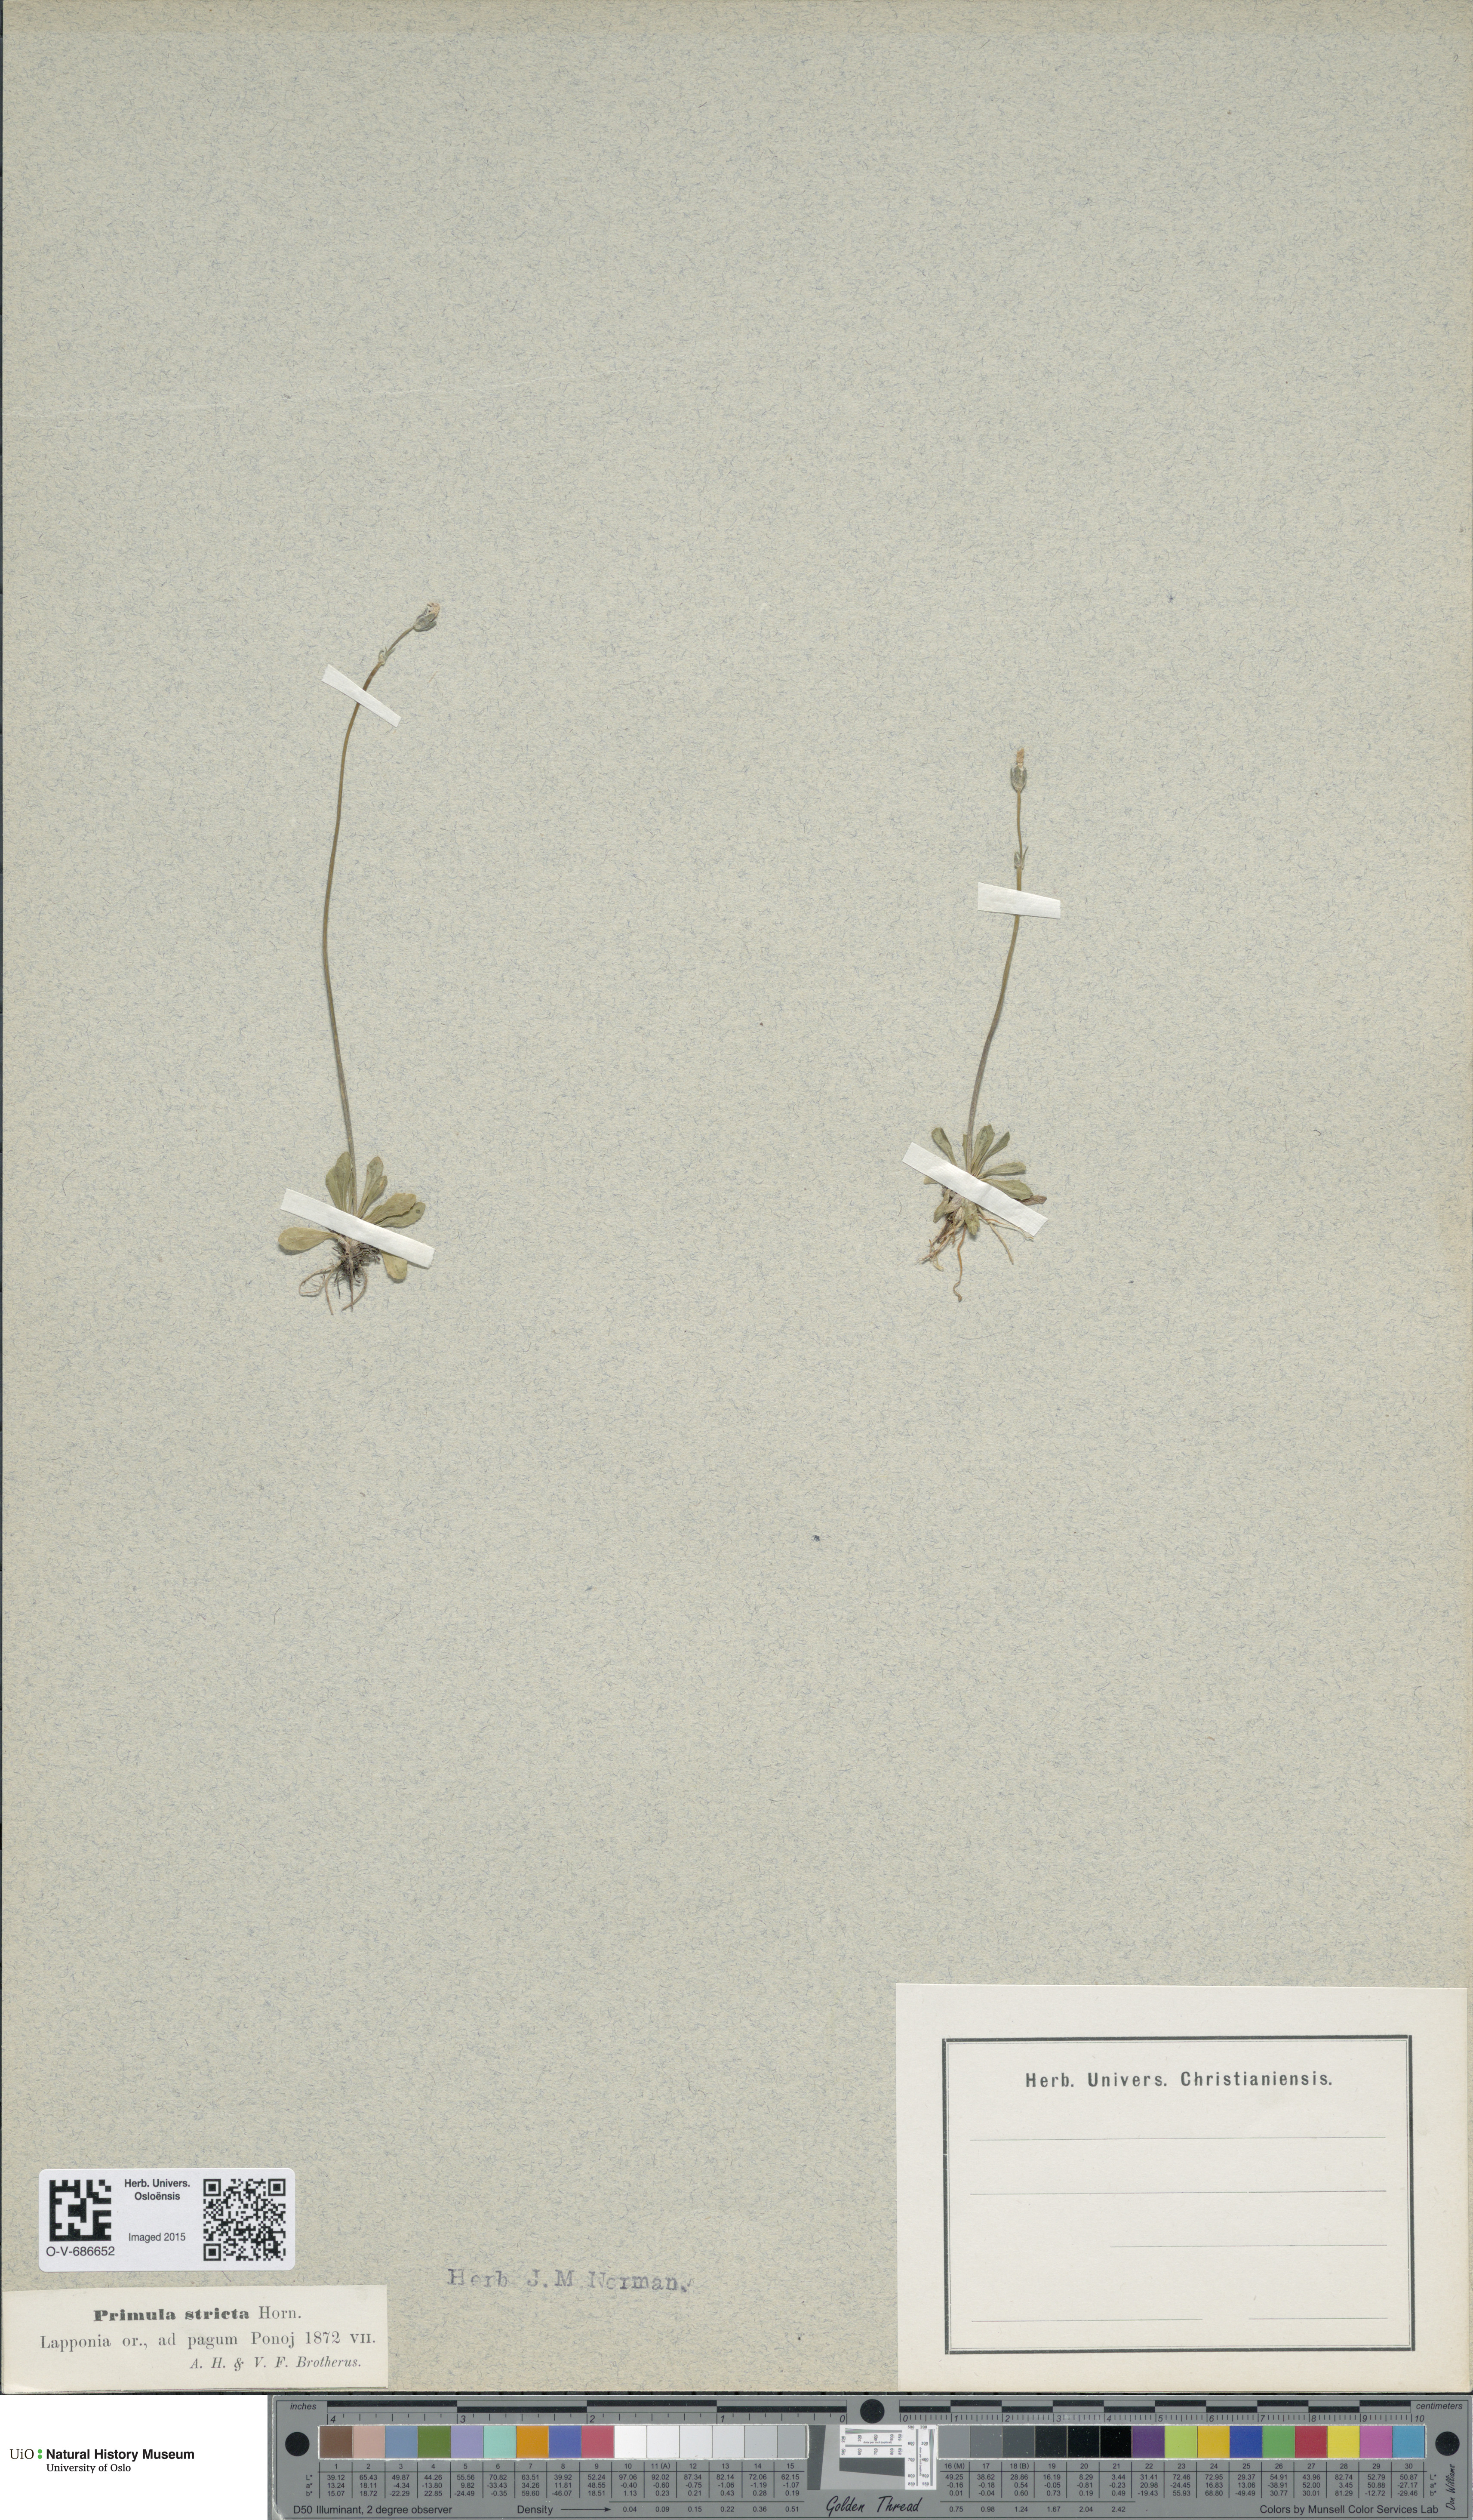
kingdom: Plantae
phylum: Tracheophyta
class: Magnoliopsida
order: Ericales
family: Primulaceae
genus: Primula
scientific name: Primula stricta
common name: Coastal primrose
